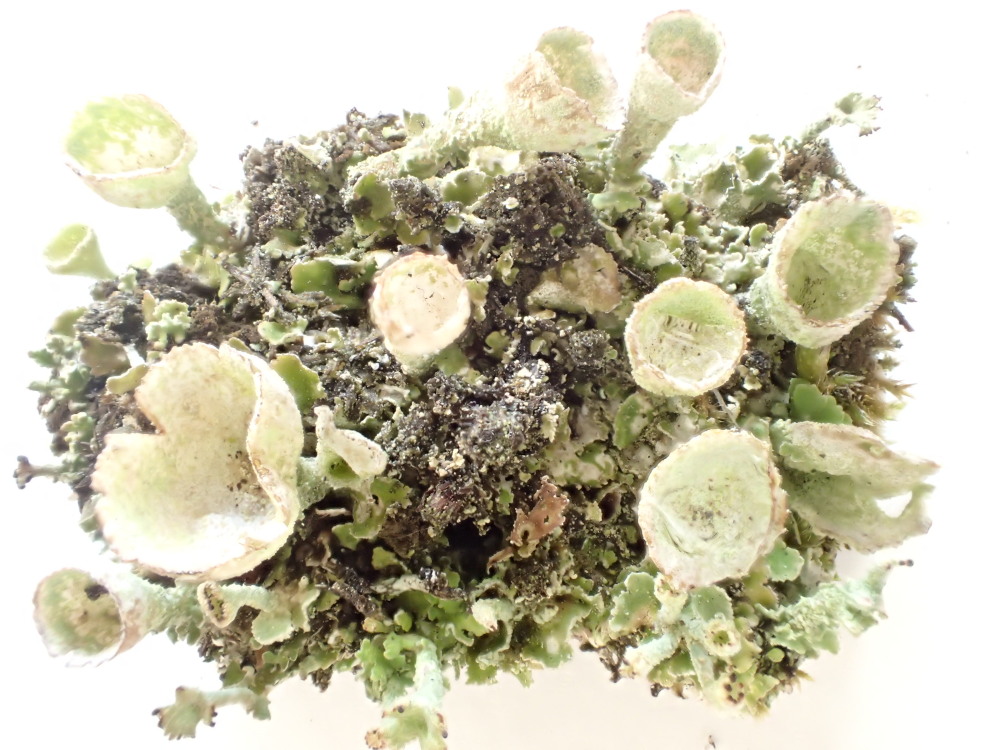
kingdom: Fungi
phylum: Ascomycota
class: Lecanoromycetes
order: Lecanorales
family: Cladoniaceae
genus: Cladonia
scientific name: Cladonia humilis
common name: lav bægerlav
